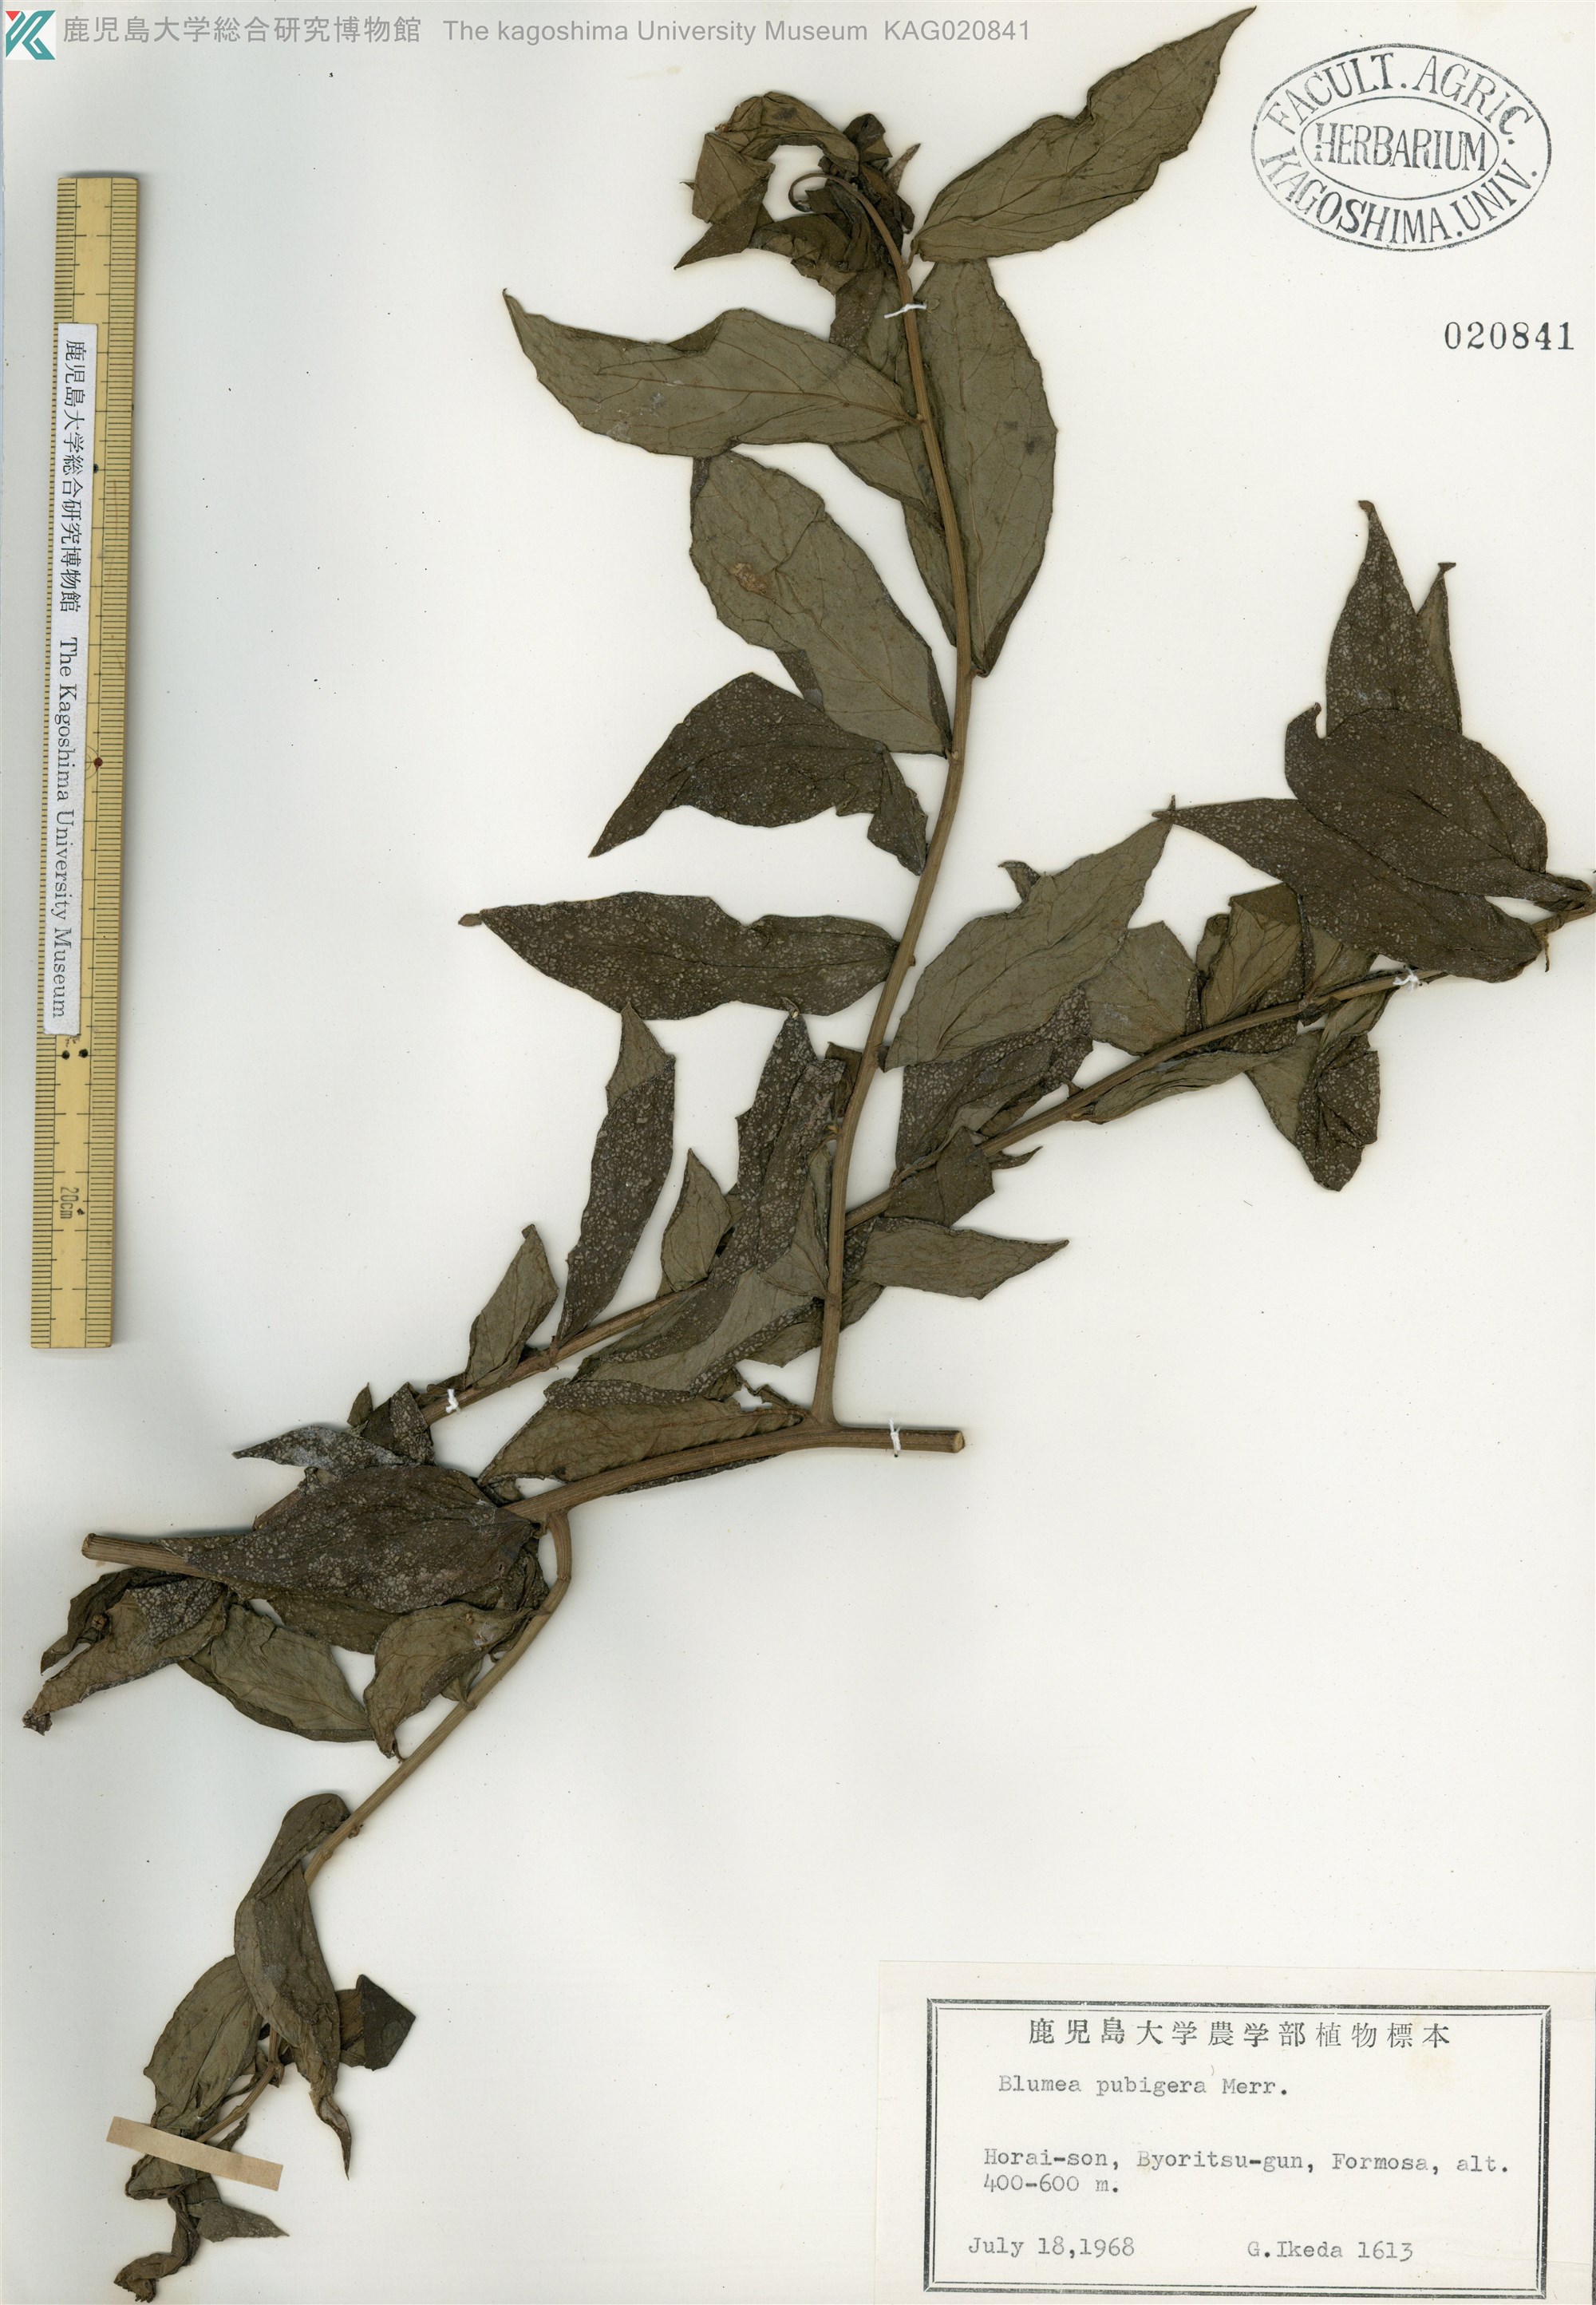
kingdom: Plantae
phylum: Tracheophyta
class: Magnoliopsida
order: Asterales
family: Asteraceae
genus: Blumea
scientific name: Blumea megacephala
